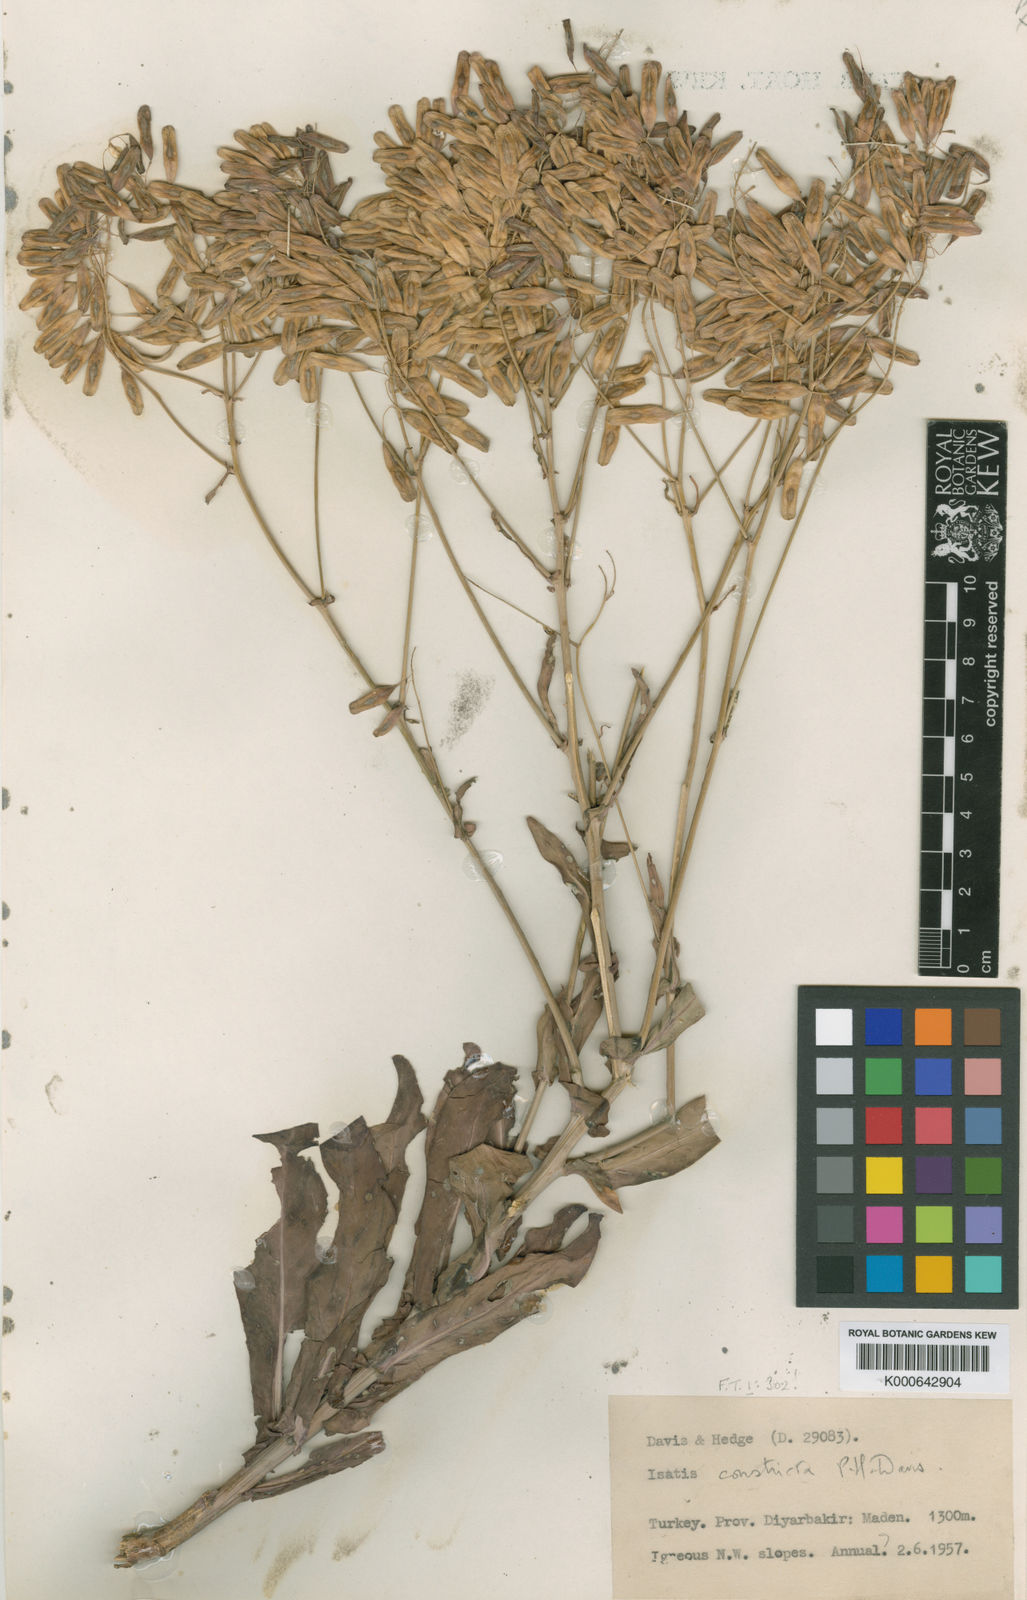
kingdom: Plantae
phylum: Tracheophyta
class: Magnoliopsida
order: Brassicales
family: Brassicaceae
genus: Isatis
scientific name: Isatis constricta
